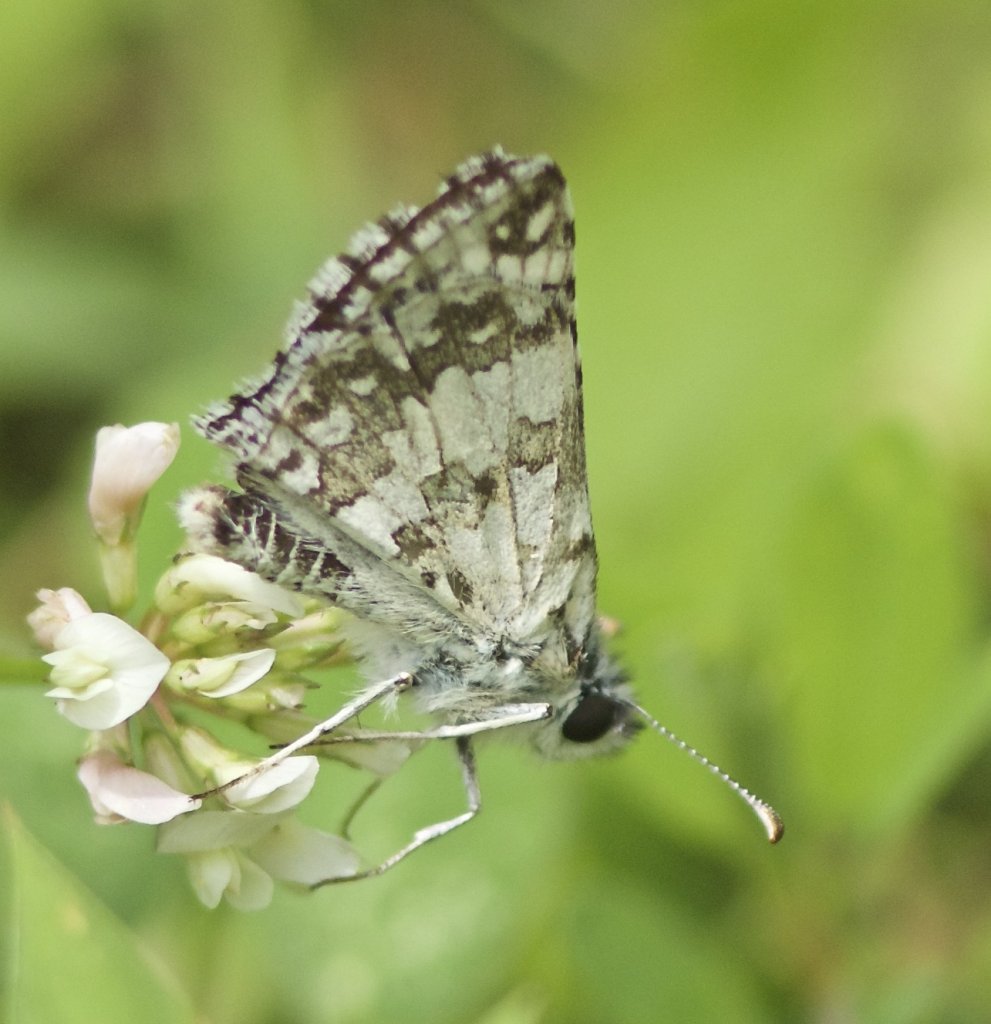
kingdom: Animalia
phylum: Arthropoda
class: Insecta
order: Lepidoptera
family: Hesperiidae
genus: Pyrgus
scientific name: Pyrgus communis
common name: Common Checkered-Skipper
